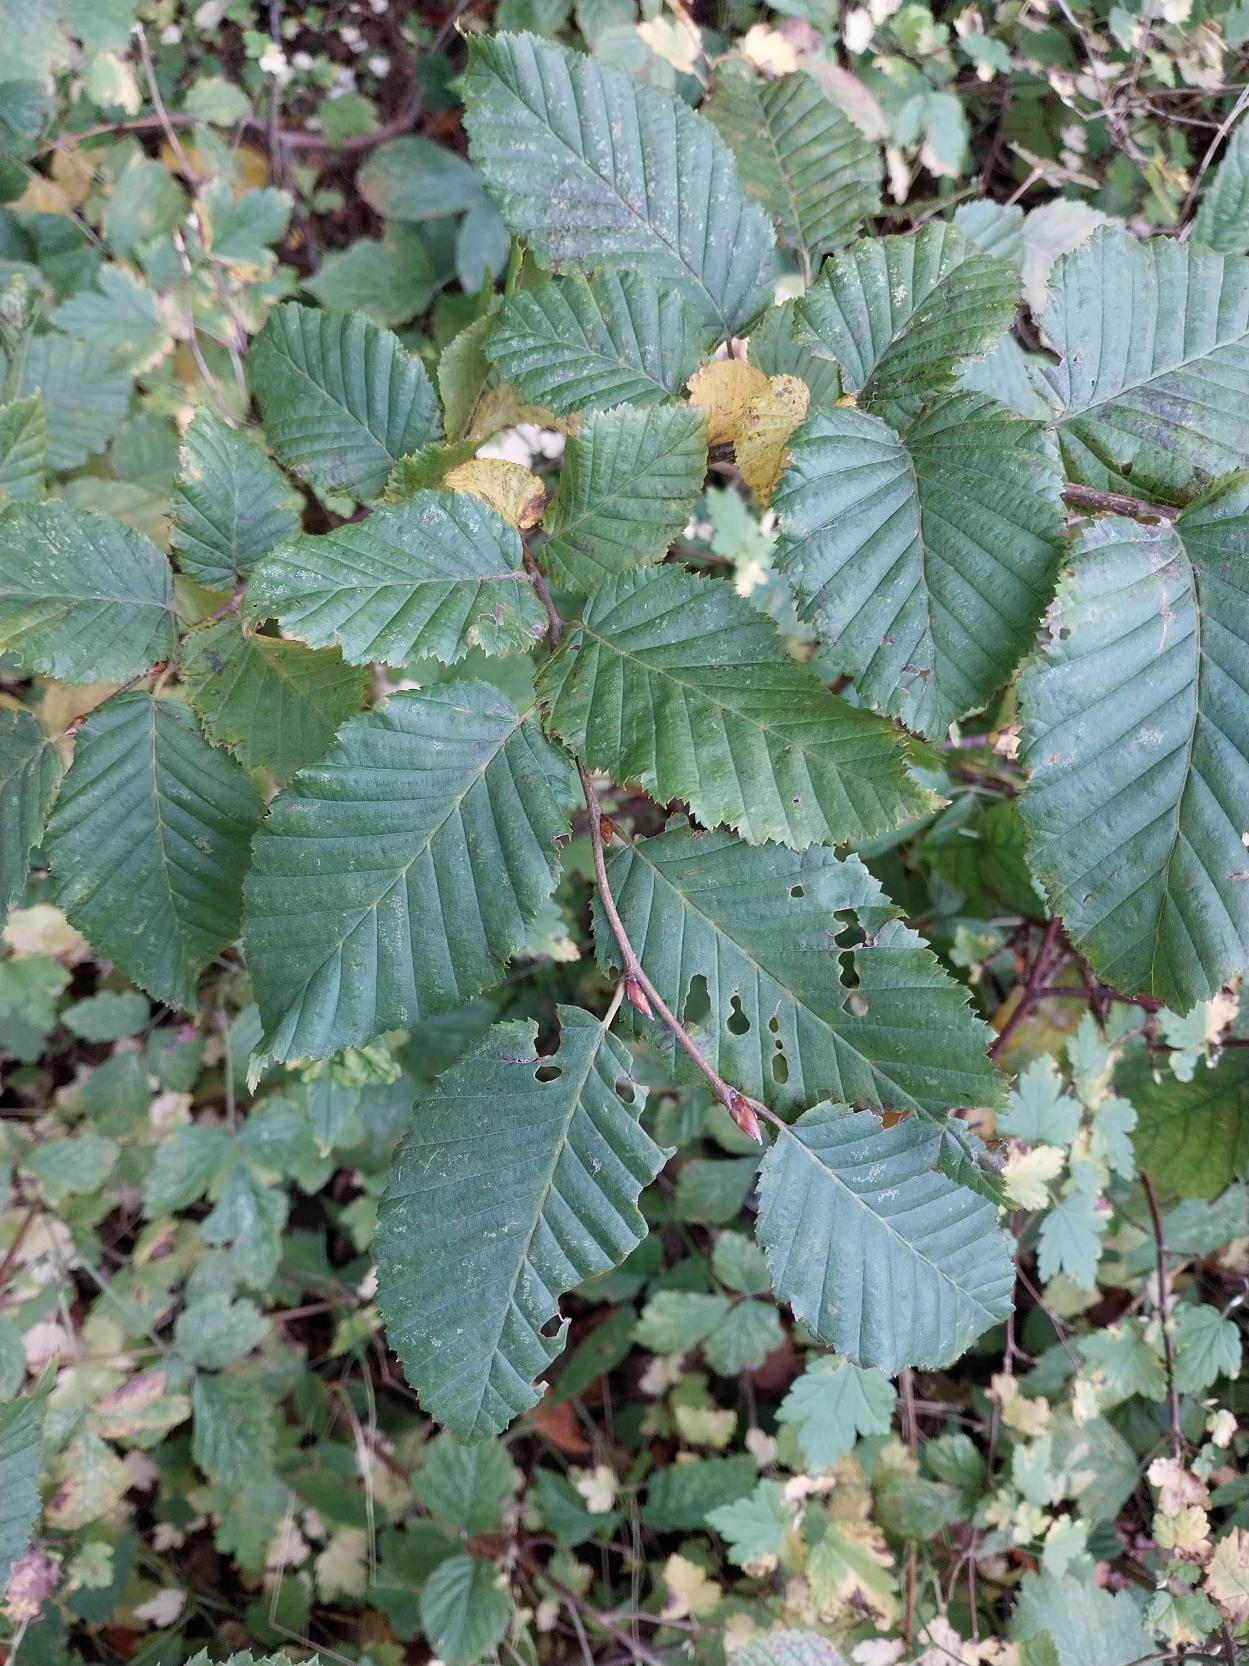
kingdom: Plantae
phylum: Tracheophyta
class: Magnoliopsida
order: Fagales
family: Betulaceae
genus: Carpinus
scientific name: Carpinus betulus
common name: Avnbøg
